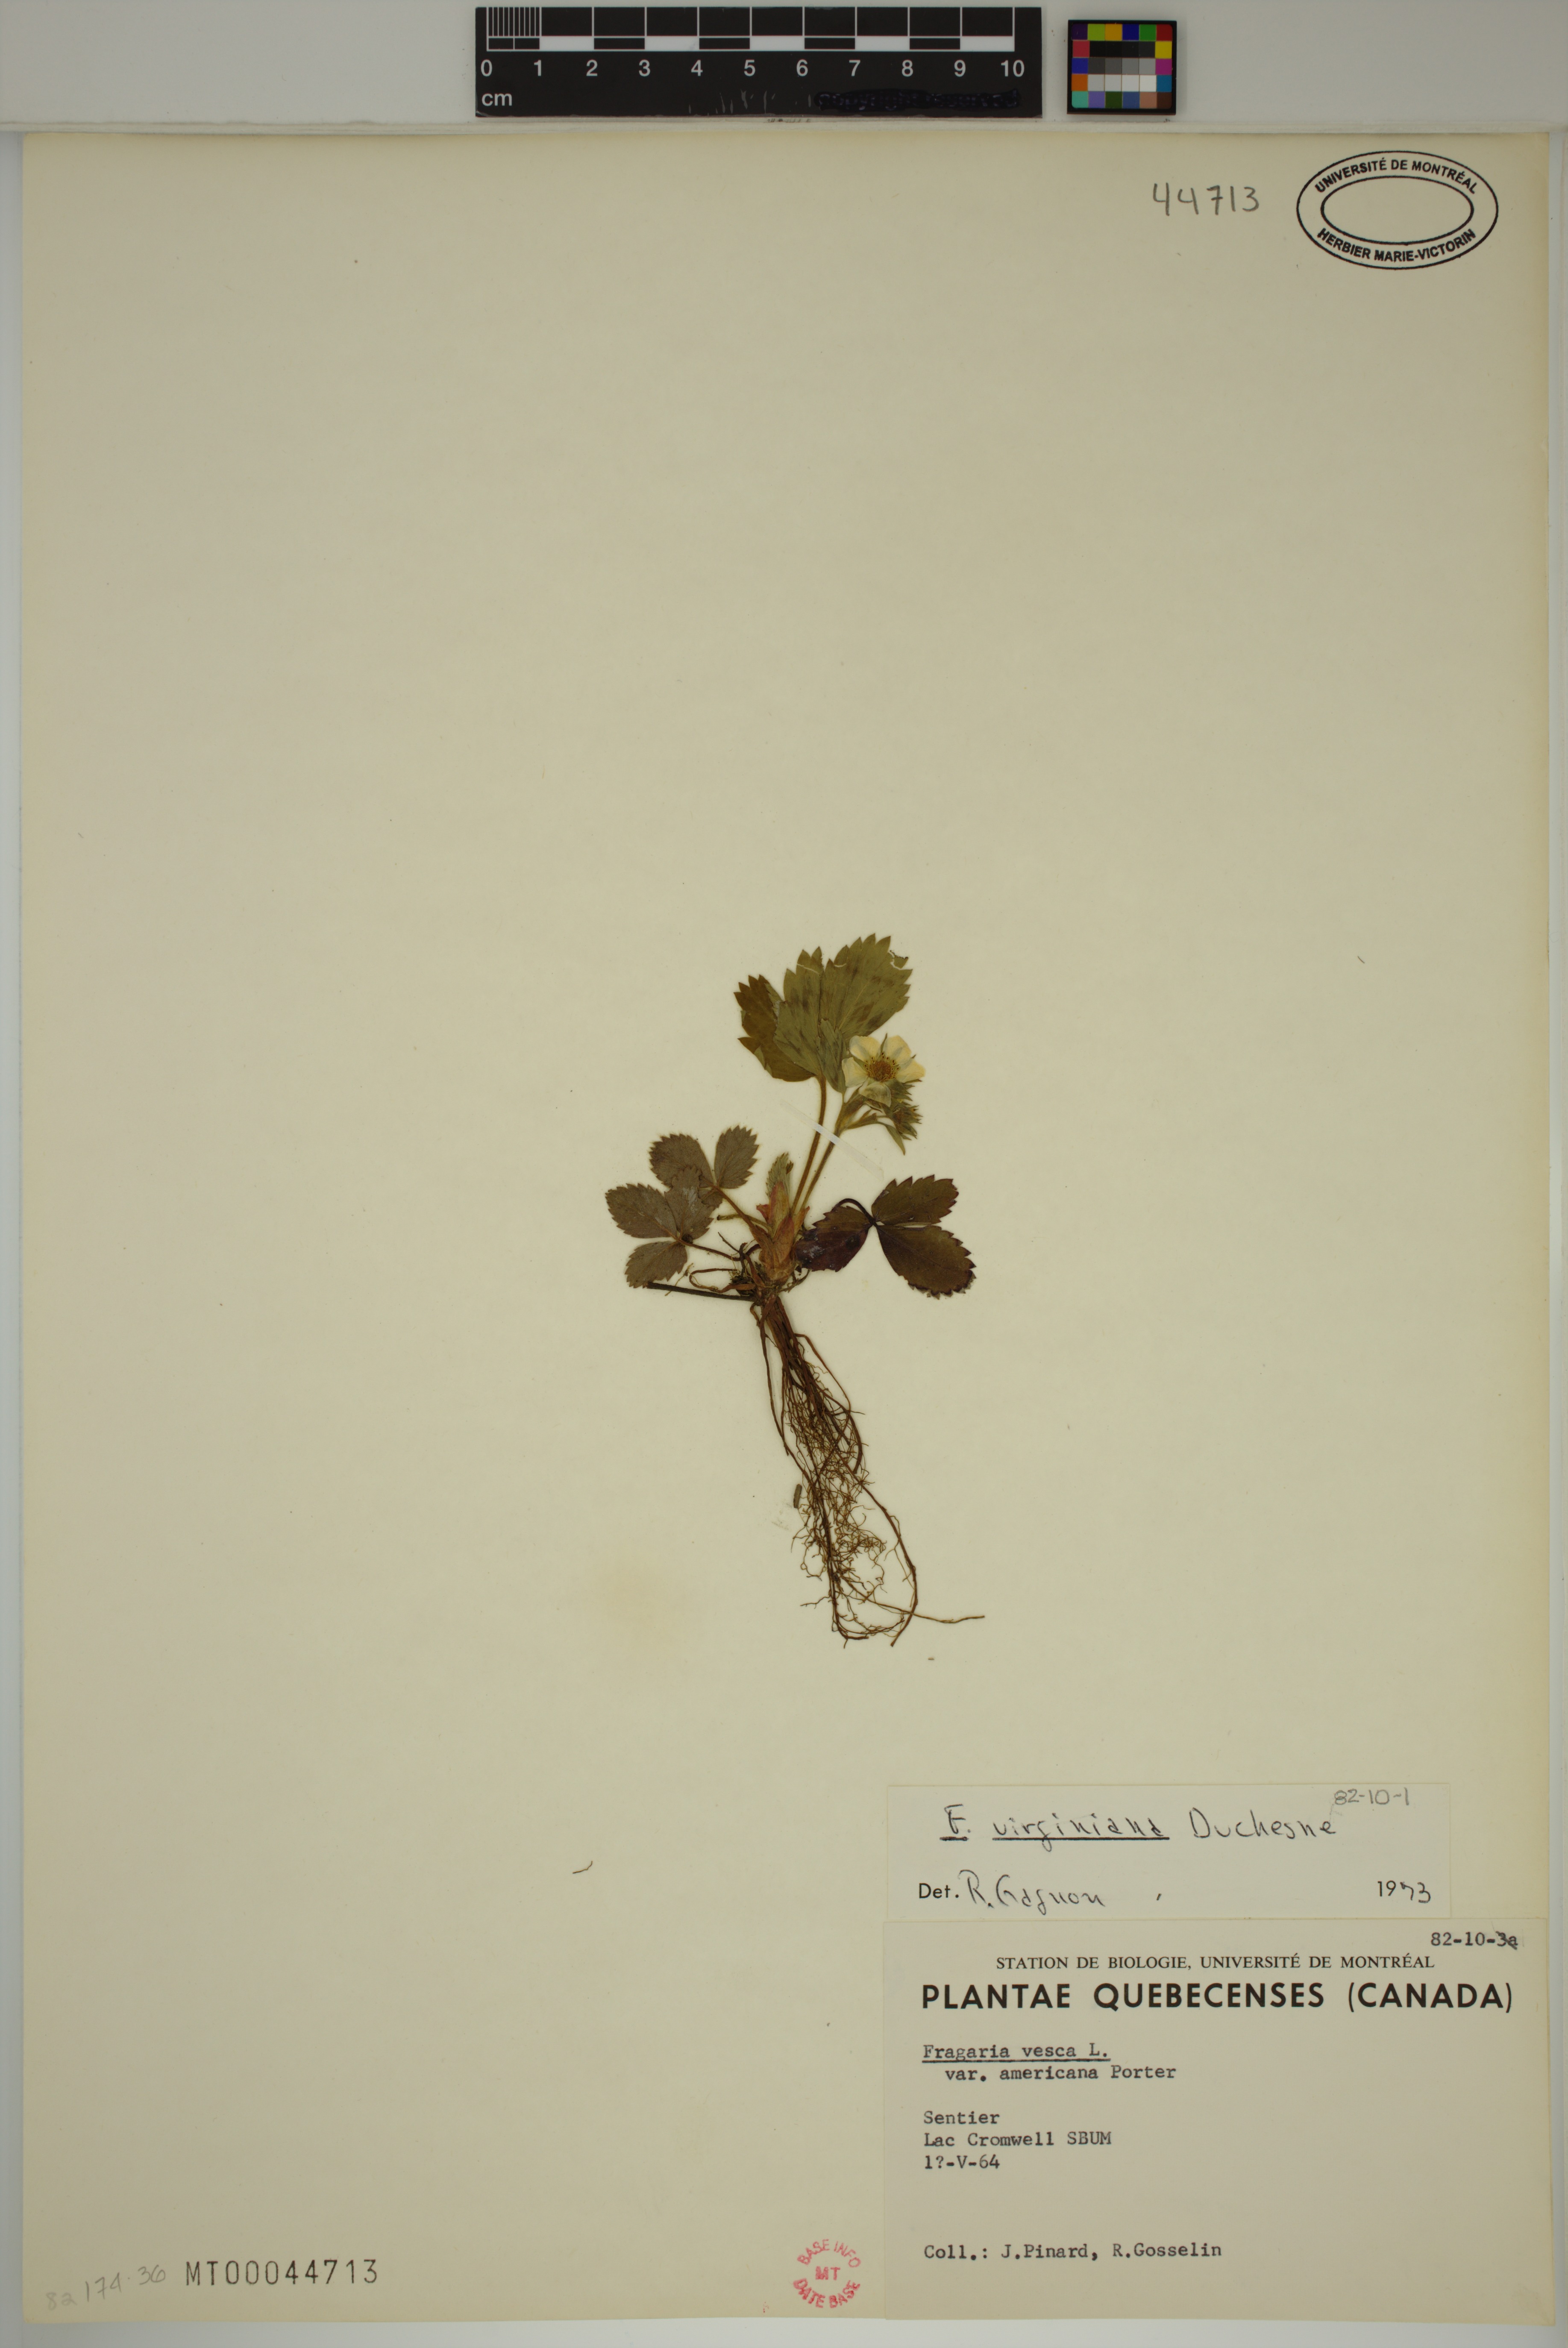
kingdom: Plantae
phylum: Tracheophyta
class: Magnoliopsida
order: Rosales
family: Rosaceae
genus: Fragaria
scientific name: Fragaria virginiana
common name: Thickleaved wild strawberry
